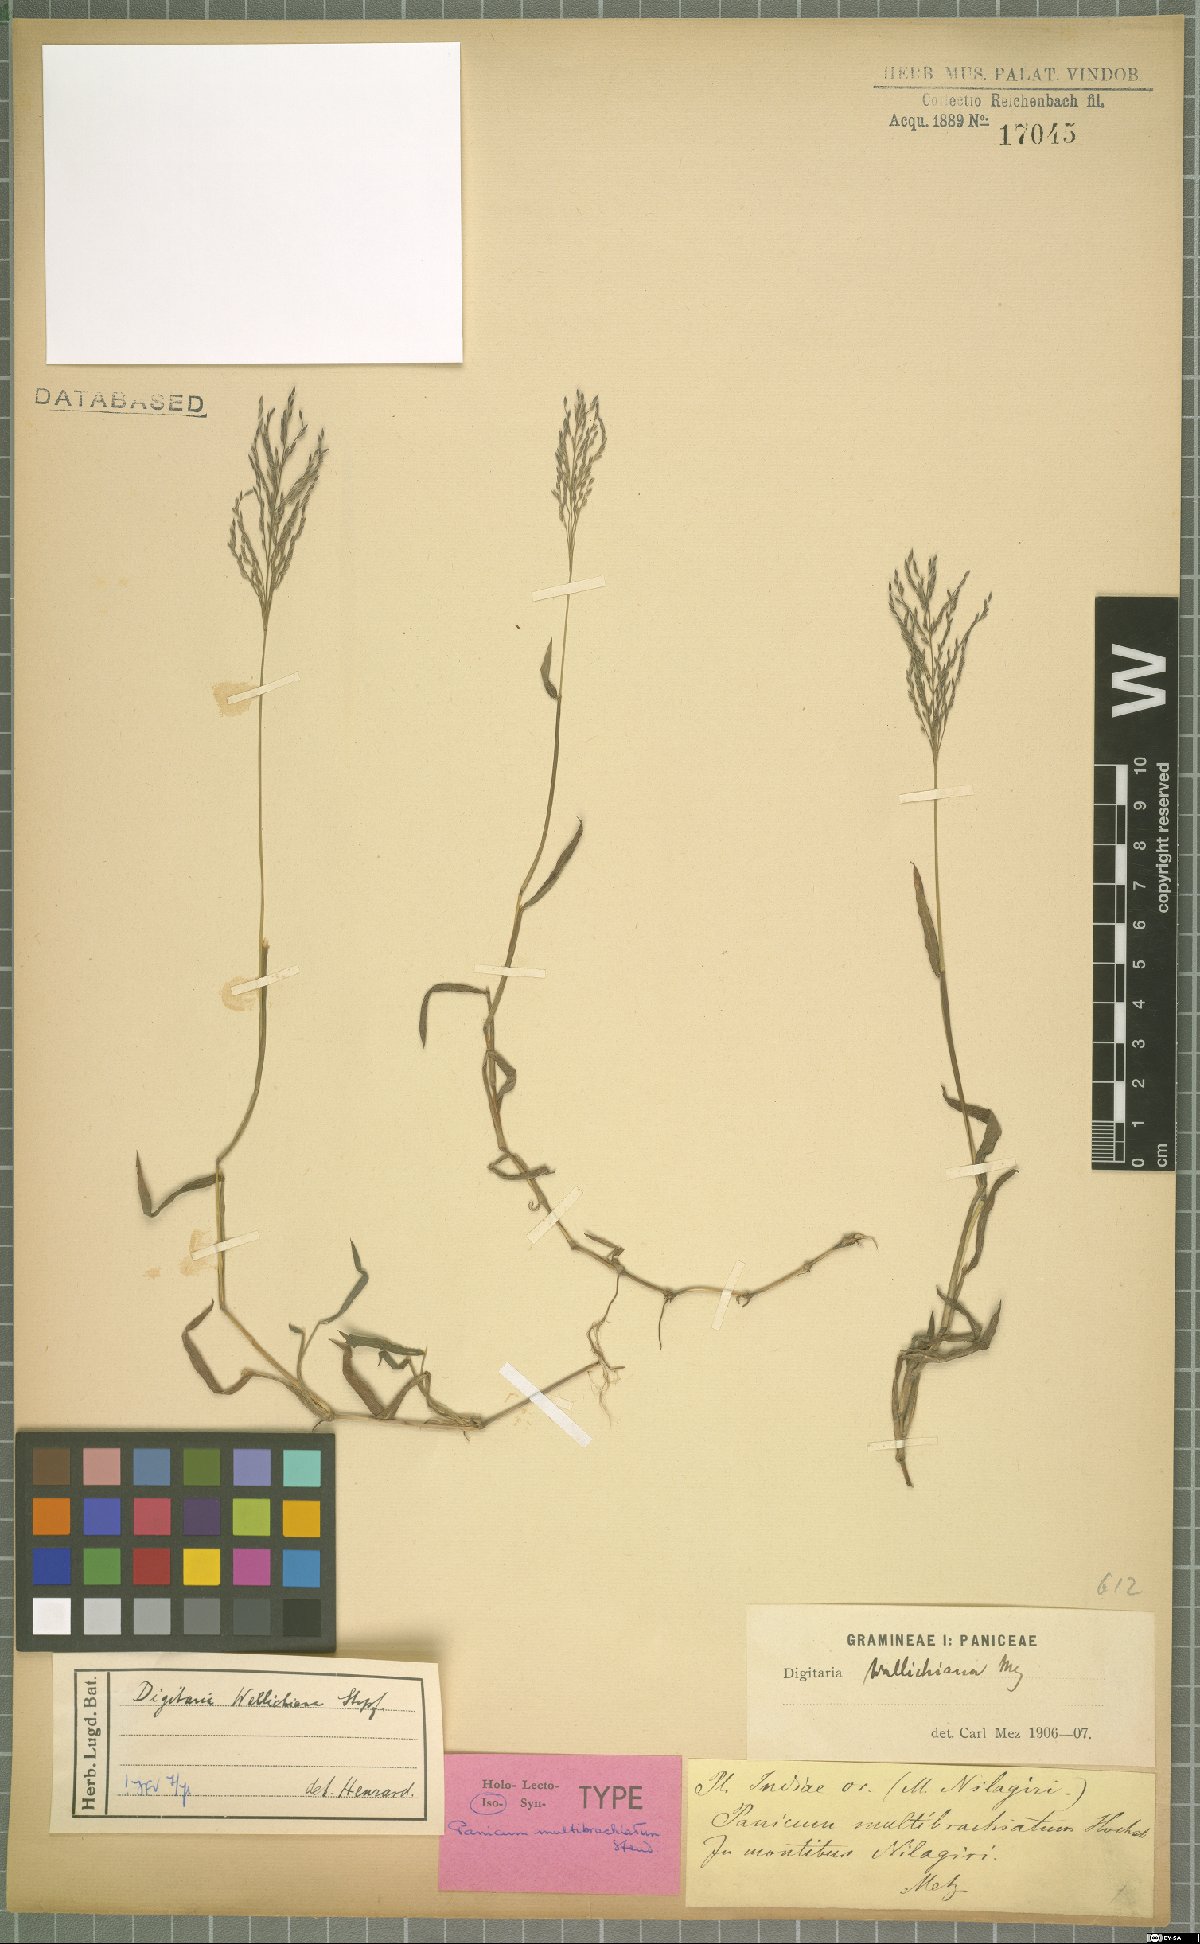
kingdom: Plantae
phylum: Tracheophyta
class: Liliopsida
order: Poales
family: Poaceae
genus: Digitaria
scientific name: Digitaria wallichiana
